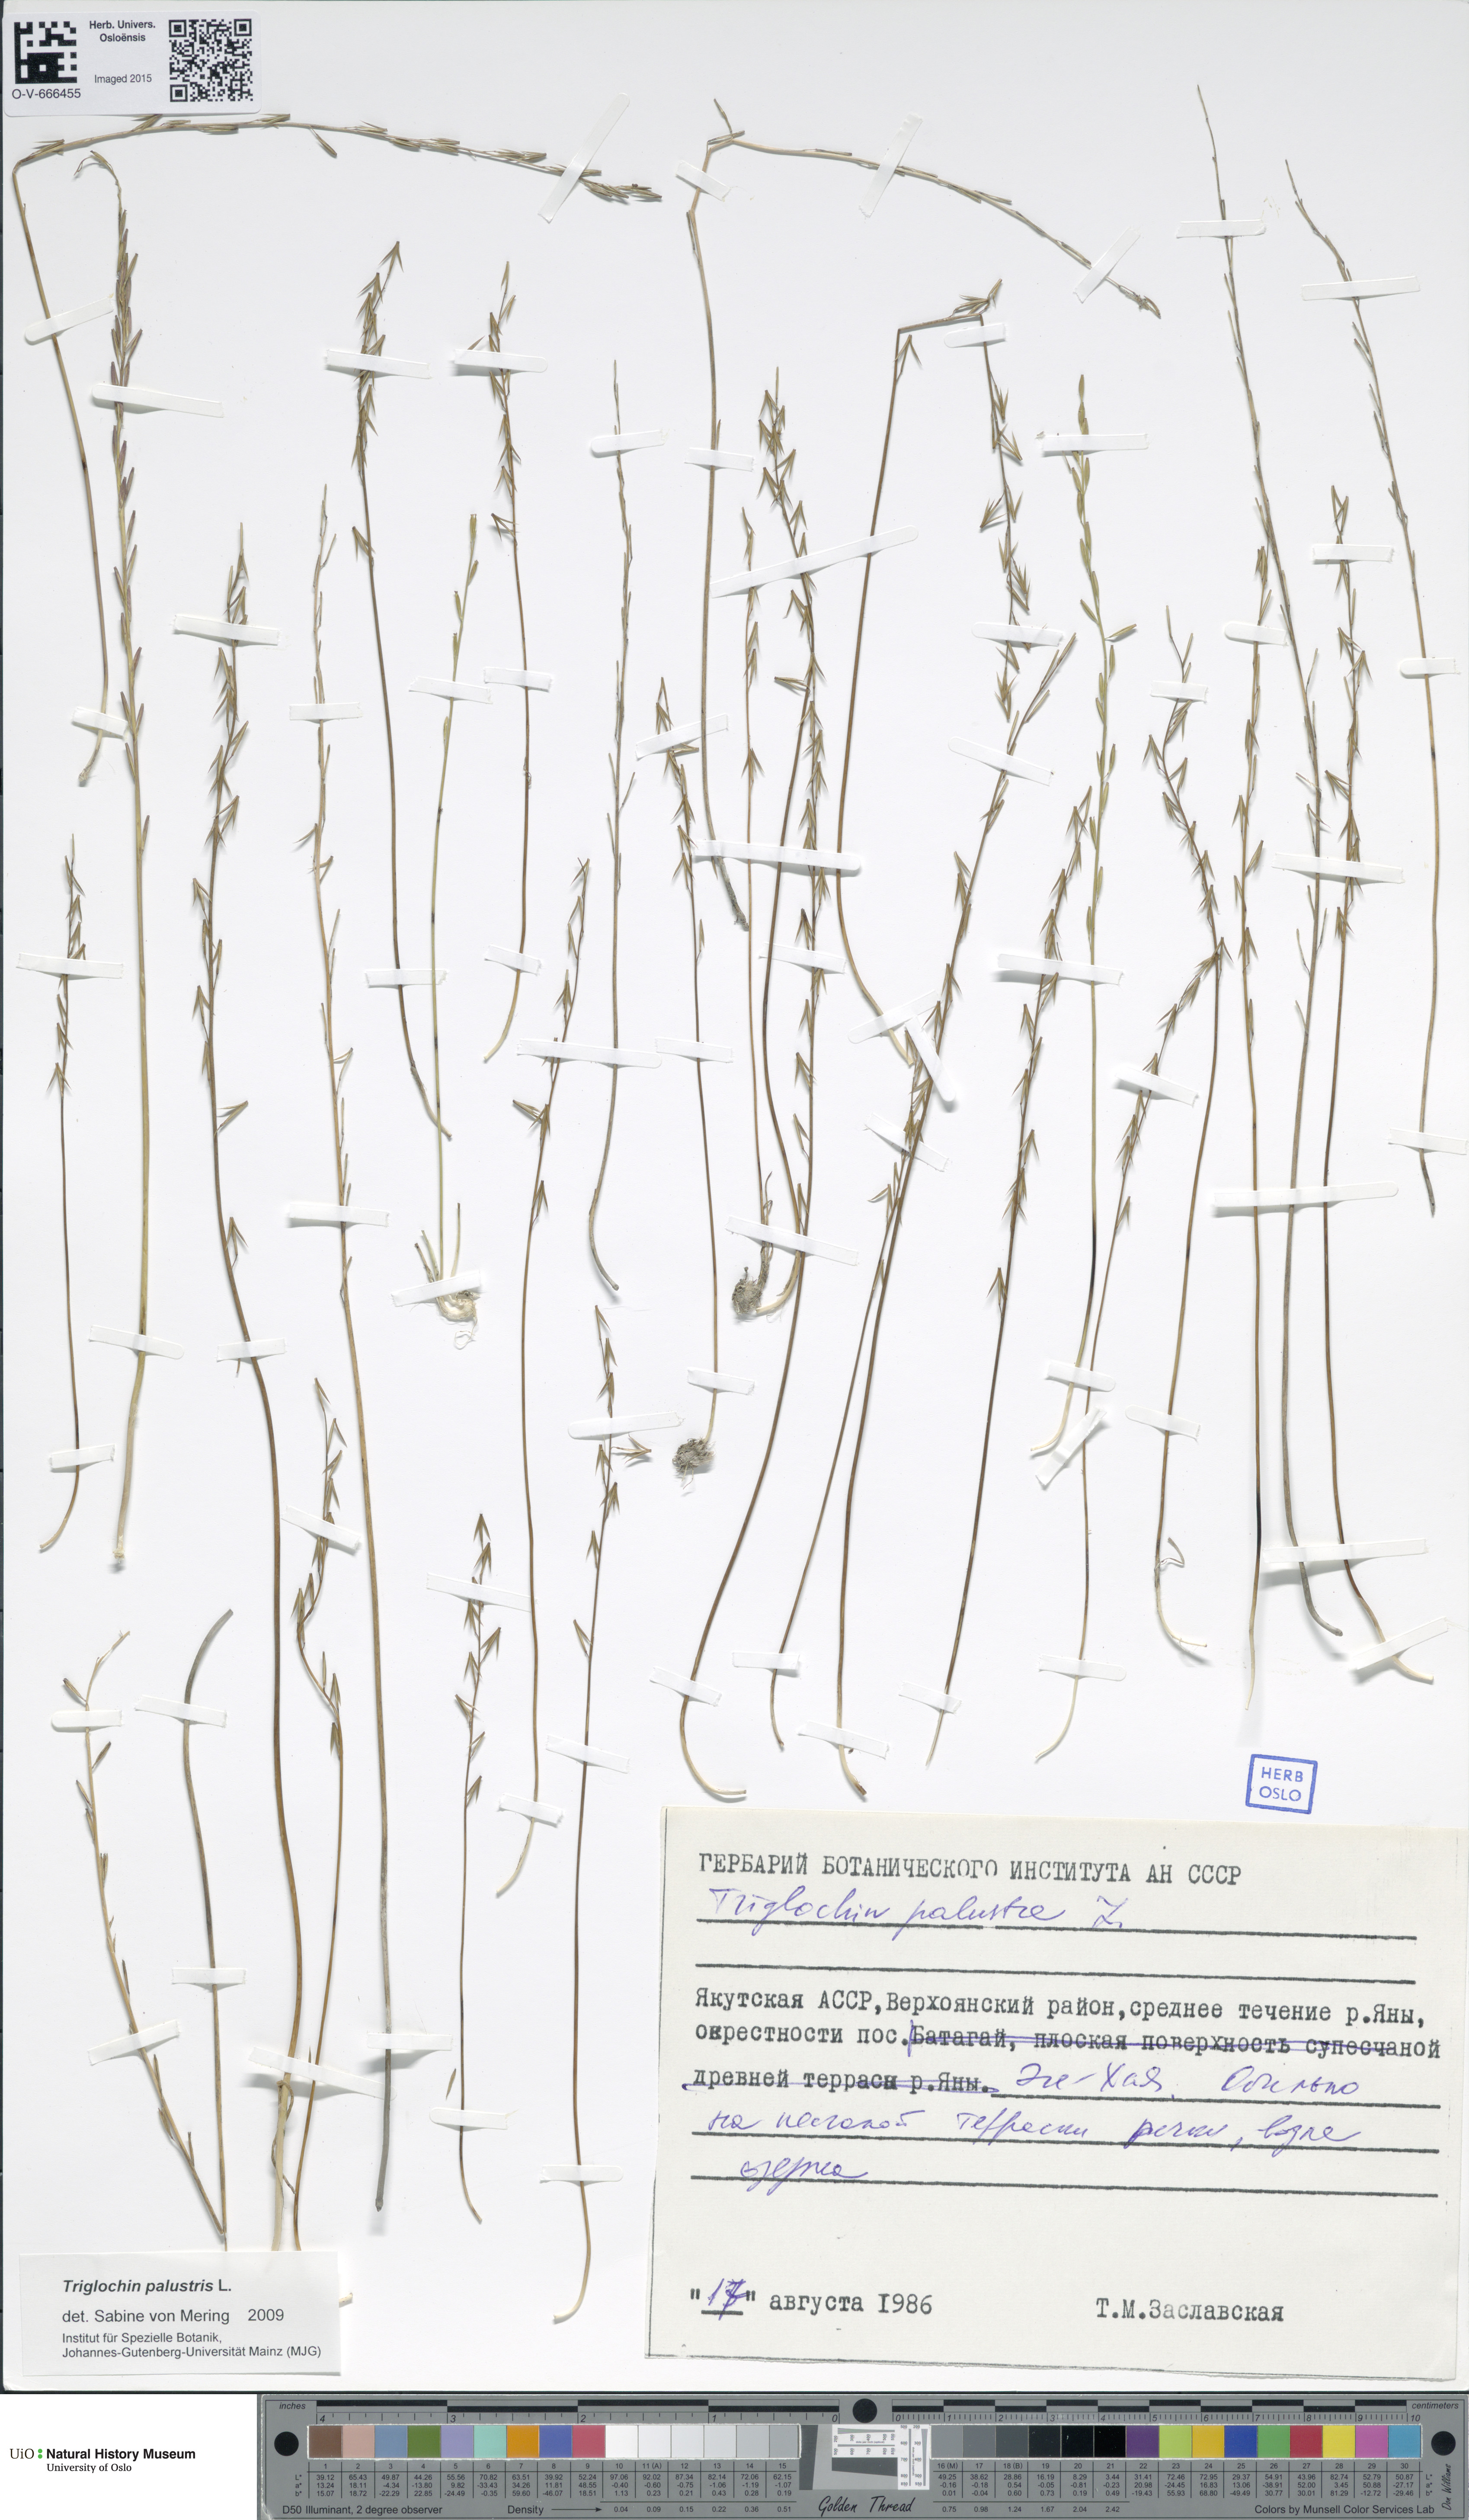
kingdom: Plantae
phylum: Tracheophyta
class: Liliopsida
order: Alismatales
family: Juncaginaceae
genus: Triglochin
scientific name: Triglochin palustris
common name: Marsh arrowgrass
